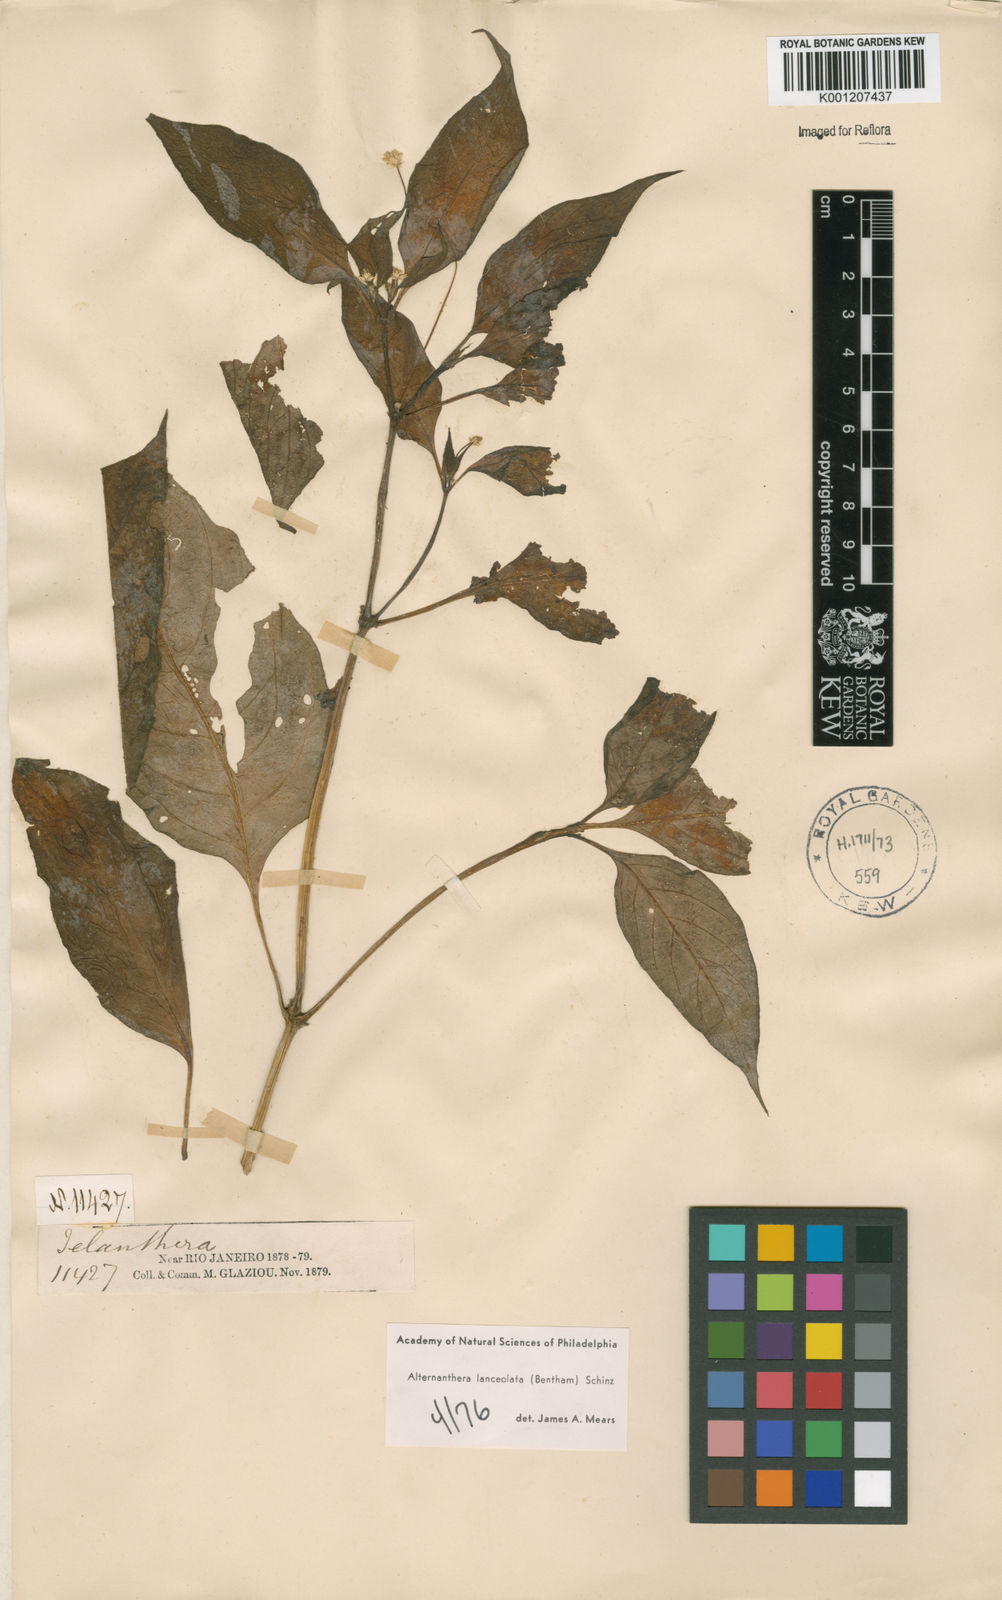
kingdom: Plantae
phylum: Tracheophyta
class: Magnoliopsida
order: Caryophyllales
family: Amaranthaceae
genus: Alternanthera
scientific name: Alternanthera lanceolata
